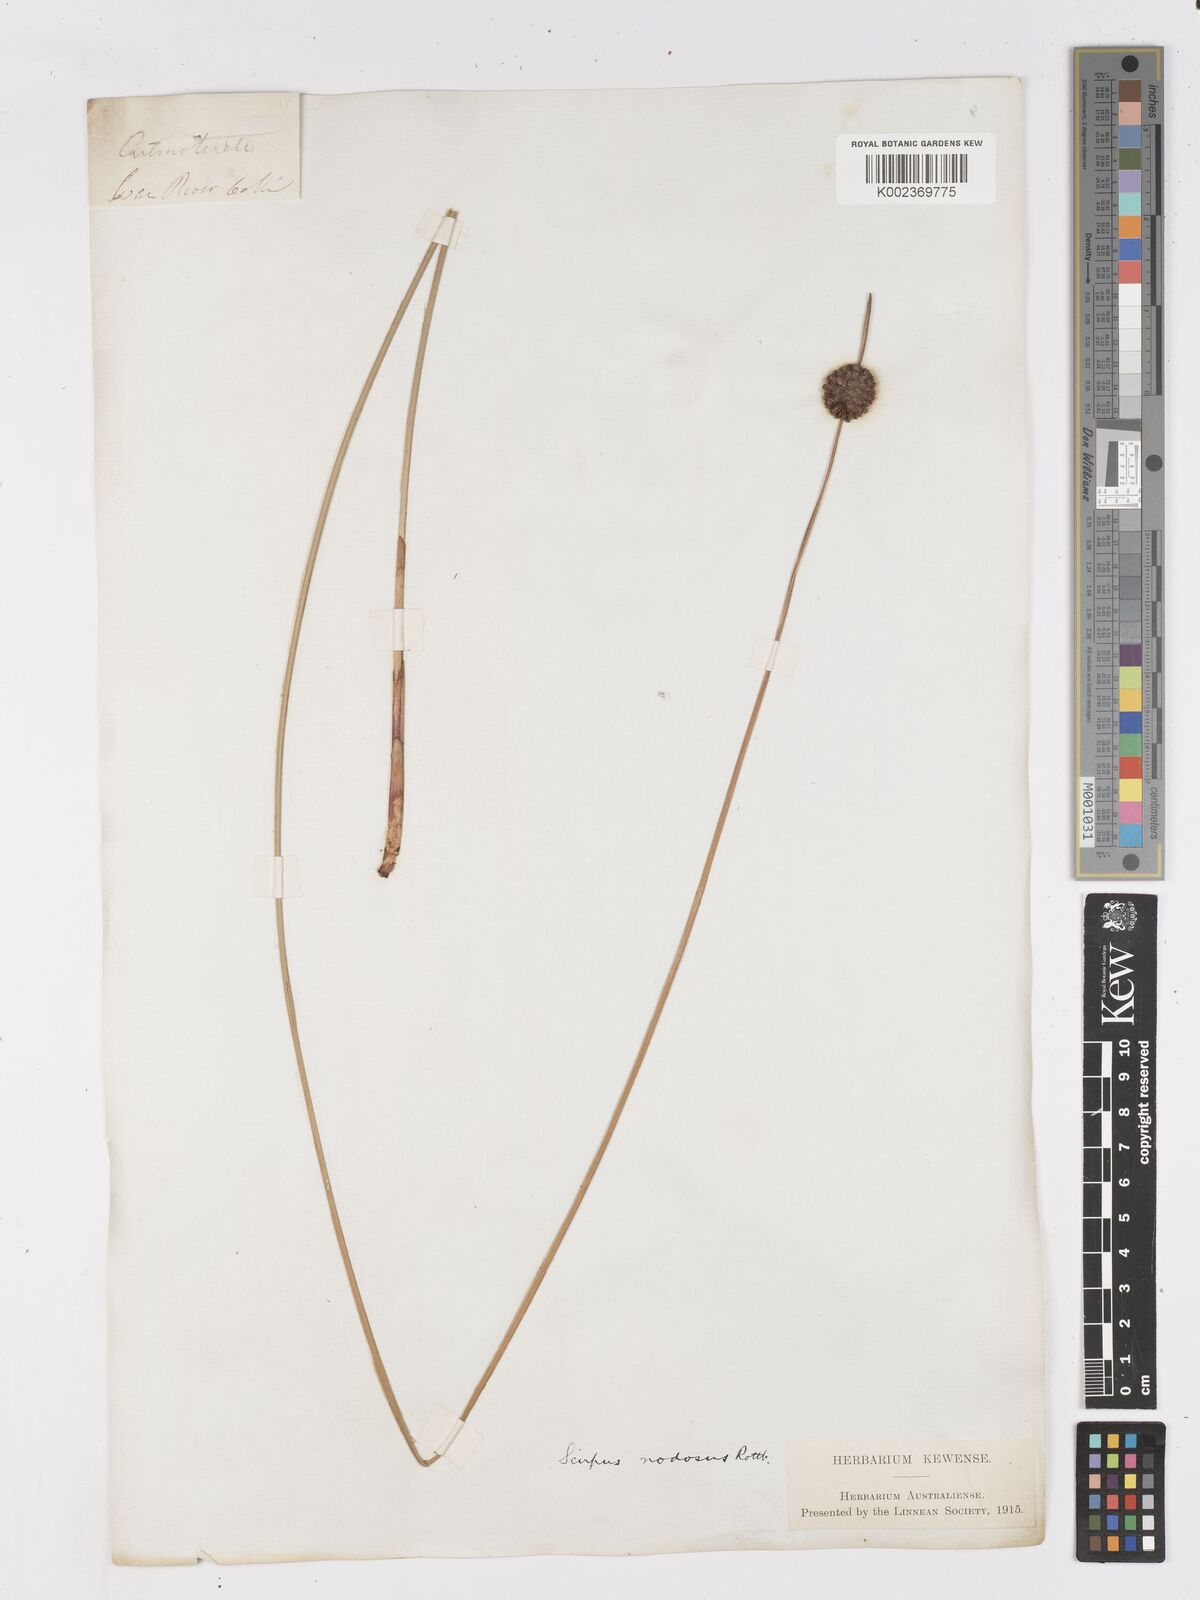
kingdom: Plantae
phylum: Tracheophyta
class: Liliopsida
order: Poales
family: Cyperaceae
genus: Ficinia
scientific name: Ficinia nodosa
